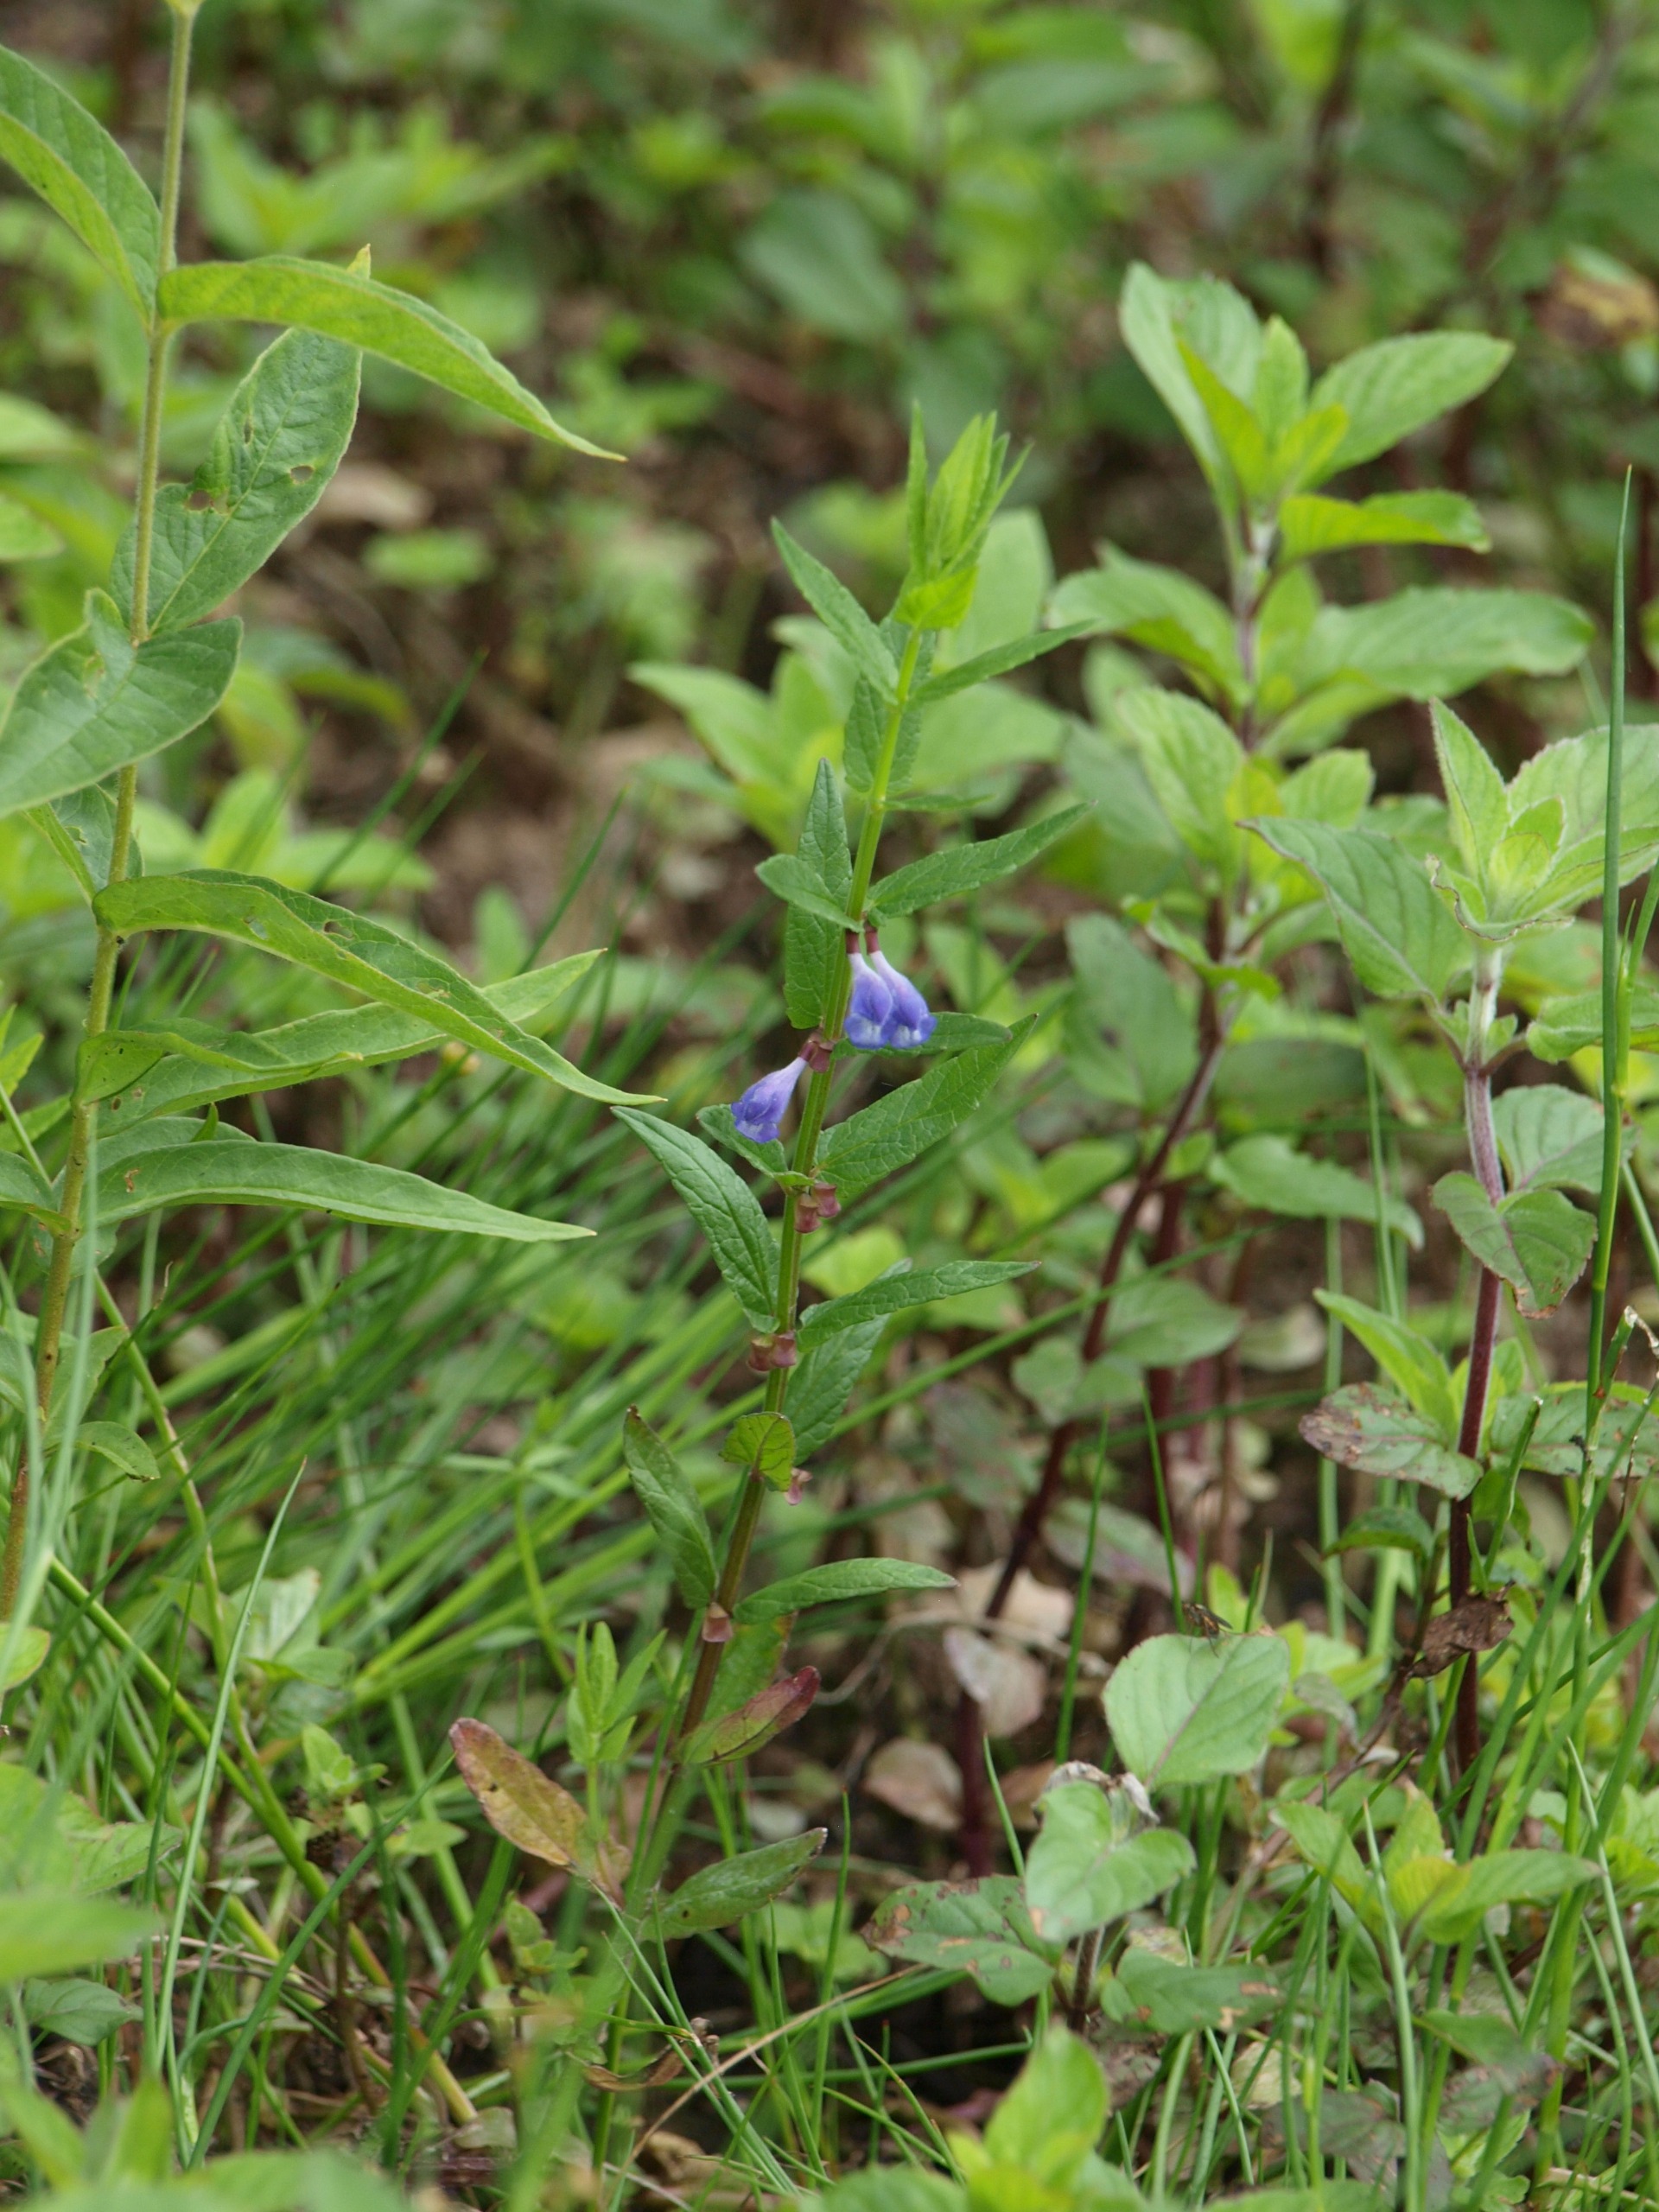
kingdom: Plantae
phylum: Tracheophyta
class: Magnoliopsida
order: Lamiales
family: Lamiaceae
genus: Scutellaria
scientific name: Scutellaria galericulata
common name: Almindelig skjolddrager
